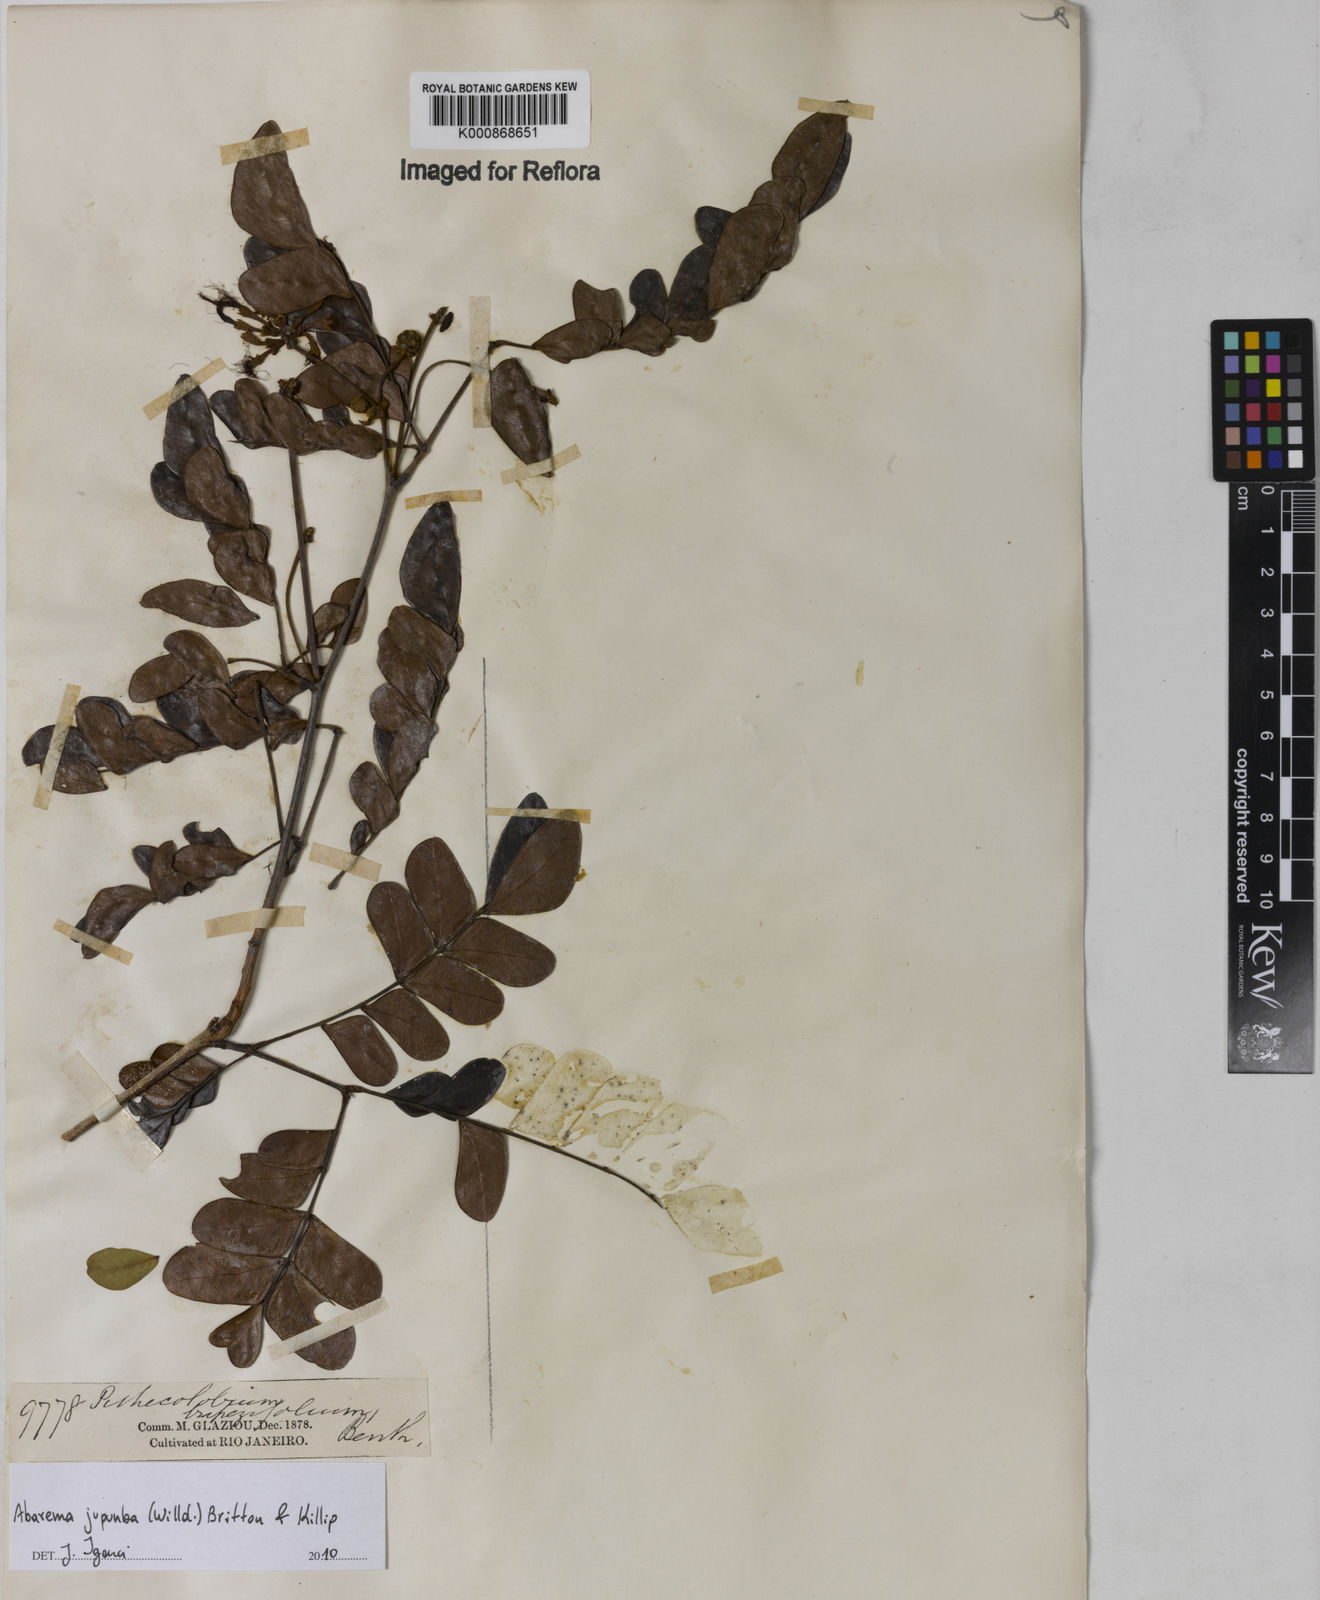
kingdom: Plantae
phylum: Tracheophyta
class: Magnoliopsida
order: Fabales
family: Fabaceae
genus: Jupunba
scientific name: Jupunba trapezifolia
